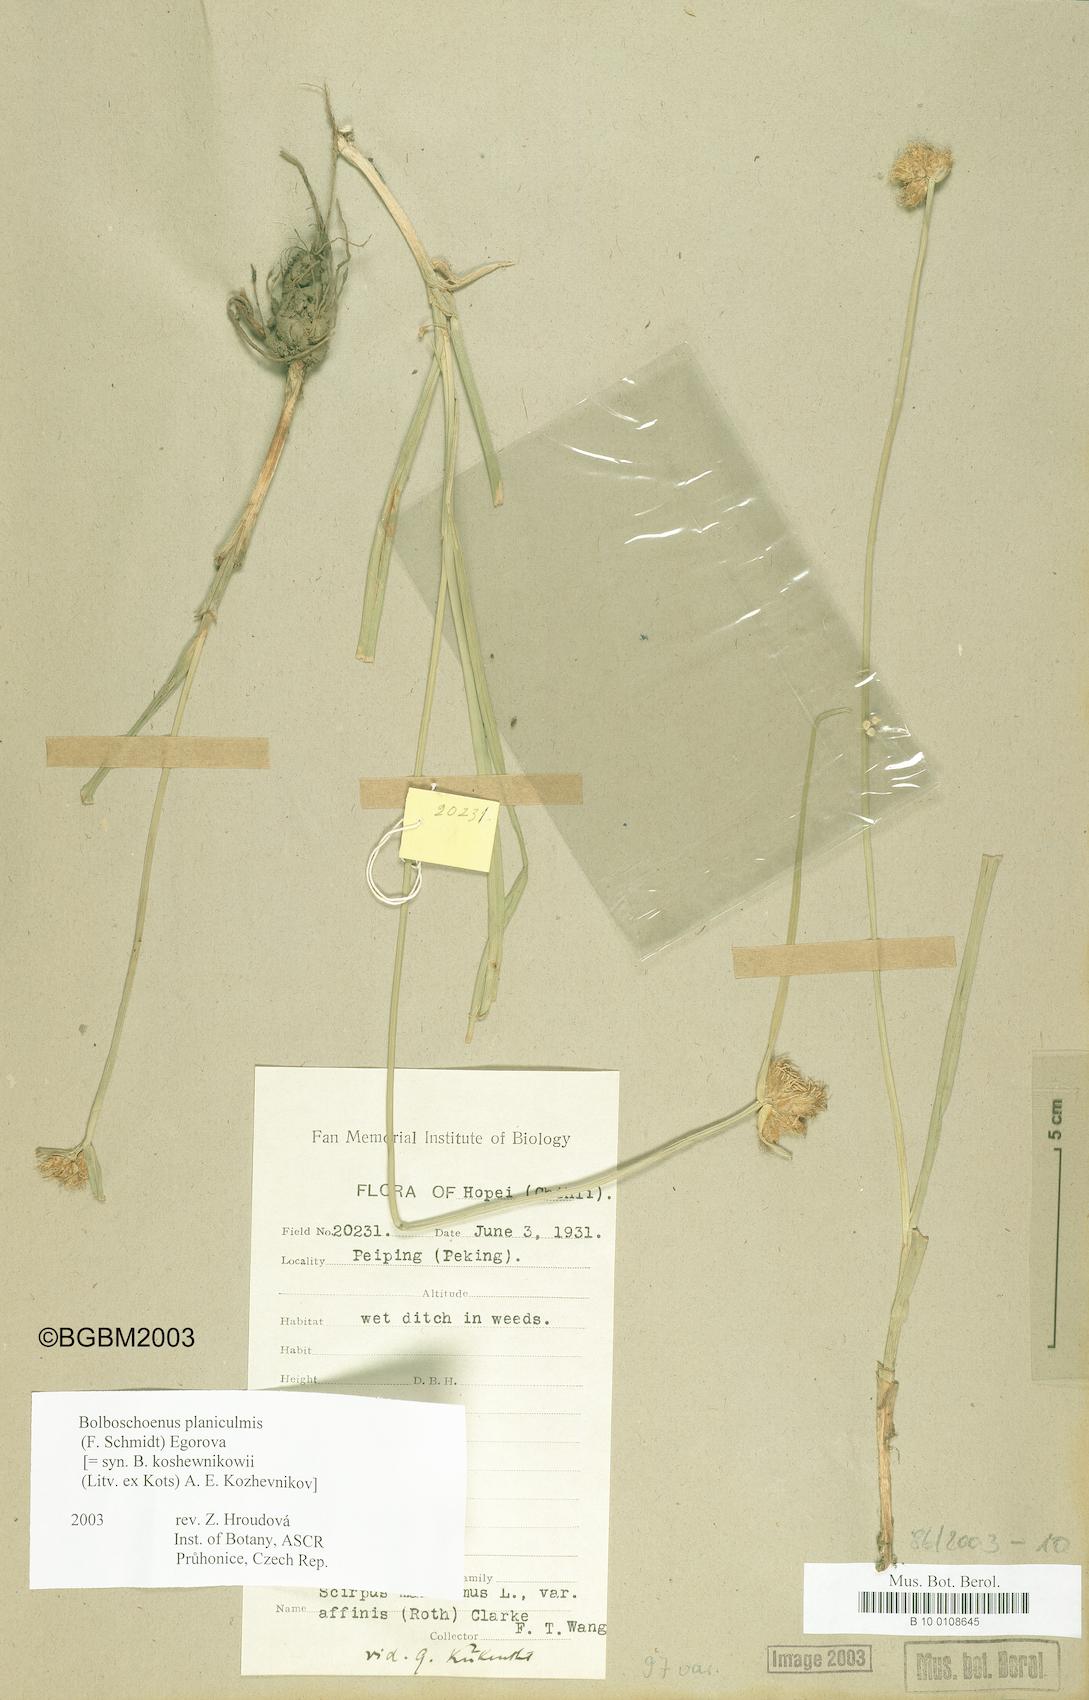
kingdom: Plantae
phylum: Tracheophyta
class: Liliopsida
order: Poales
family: Cyperaceae
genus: Bolboschoenus
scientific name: Bolboschoenus planiculmis
